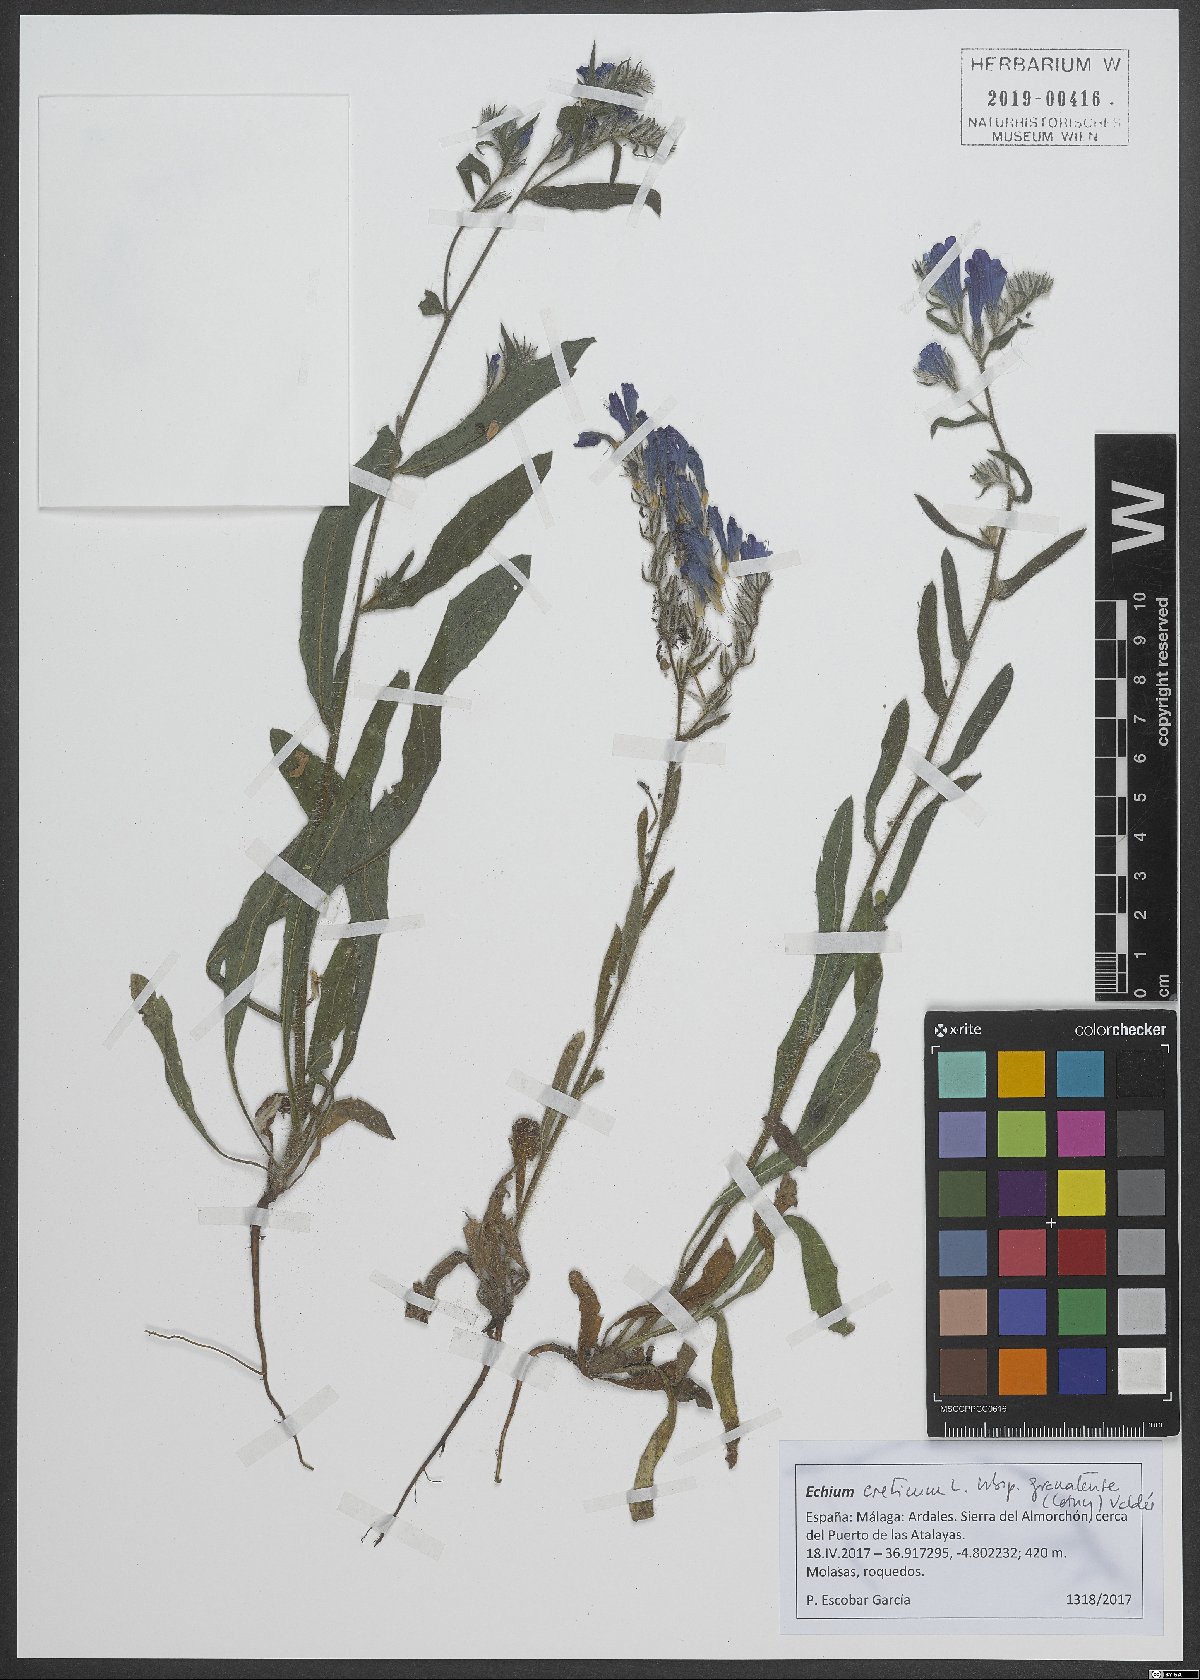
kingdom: Plantae
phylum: Tracheophyta
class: Magnoliopsida
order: Boraginales
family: Boraginaceae
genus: Echium
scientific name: Echium creticum
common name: Cretan viper's bugloss
